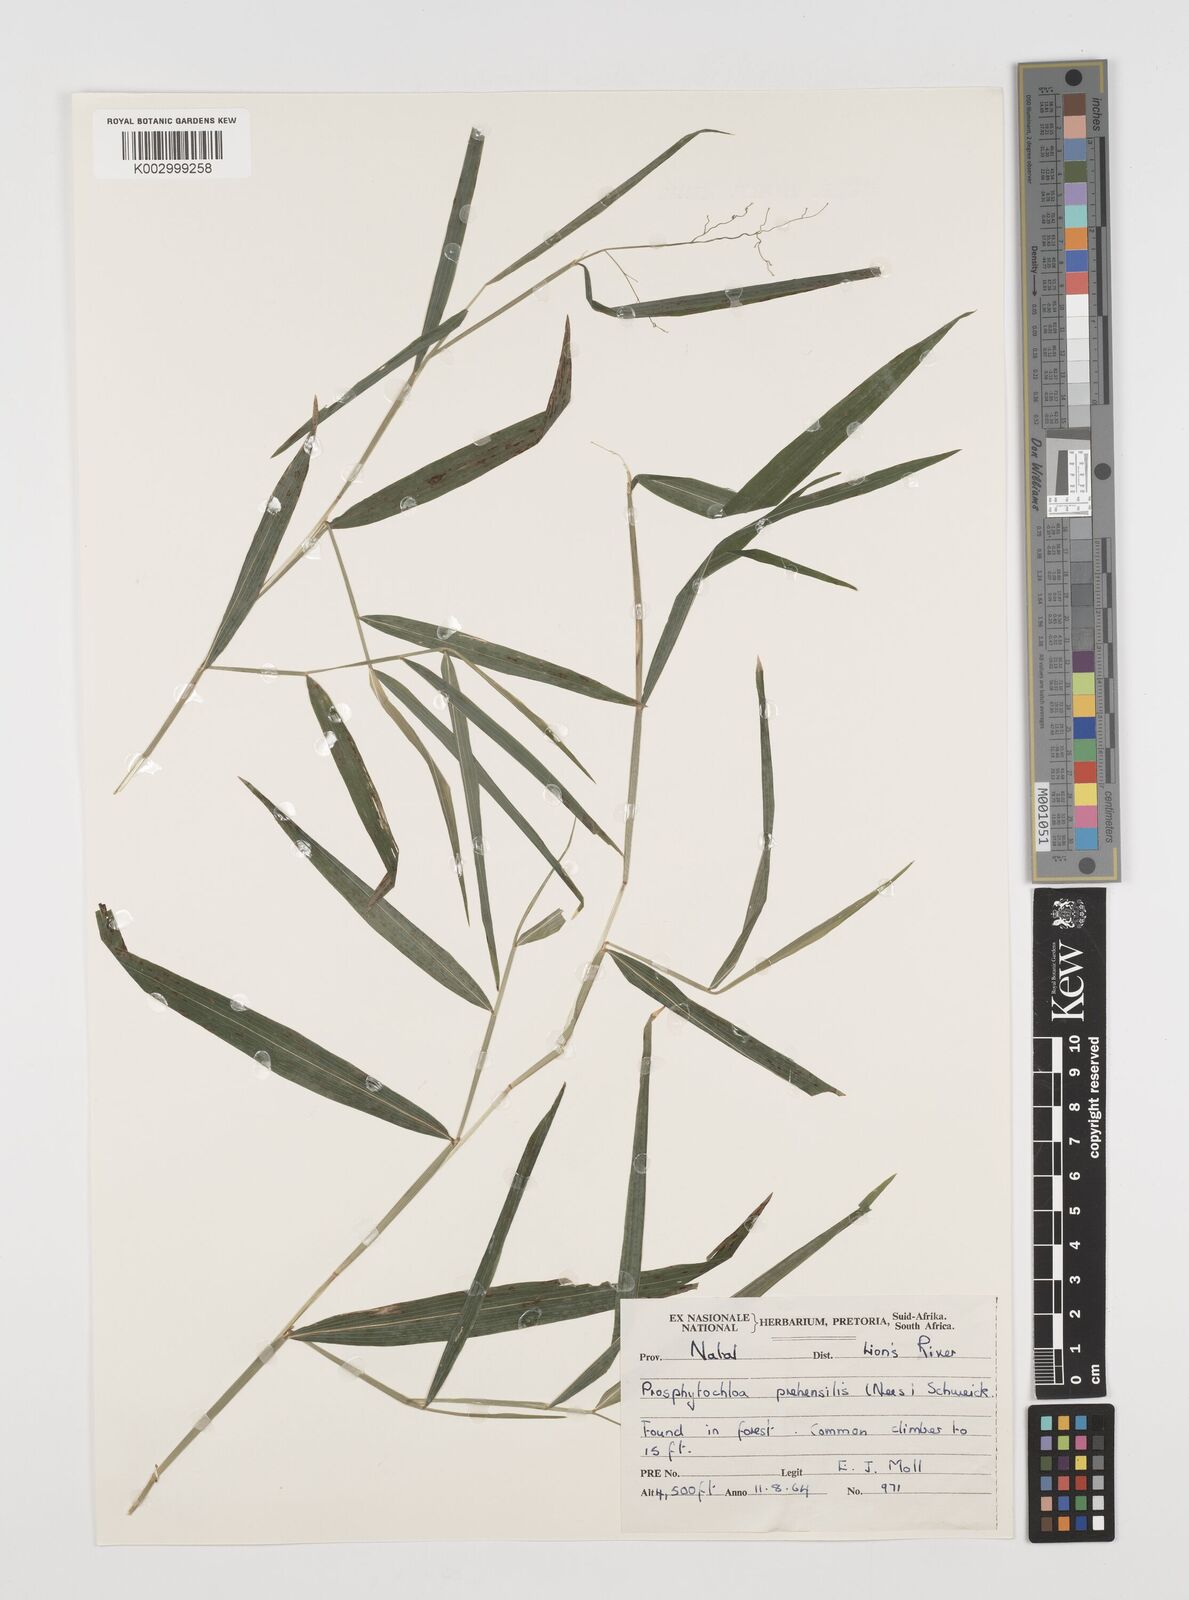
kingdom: Plantae
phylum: Tracheophyta
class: Liliopsida
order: Poales
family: Poaceae
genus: Prosphytochloa
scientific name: Prosphytochloa prehensilis
